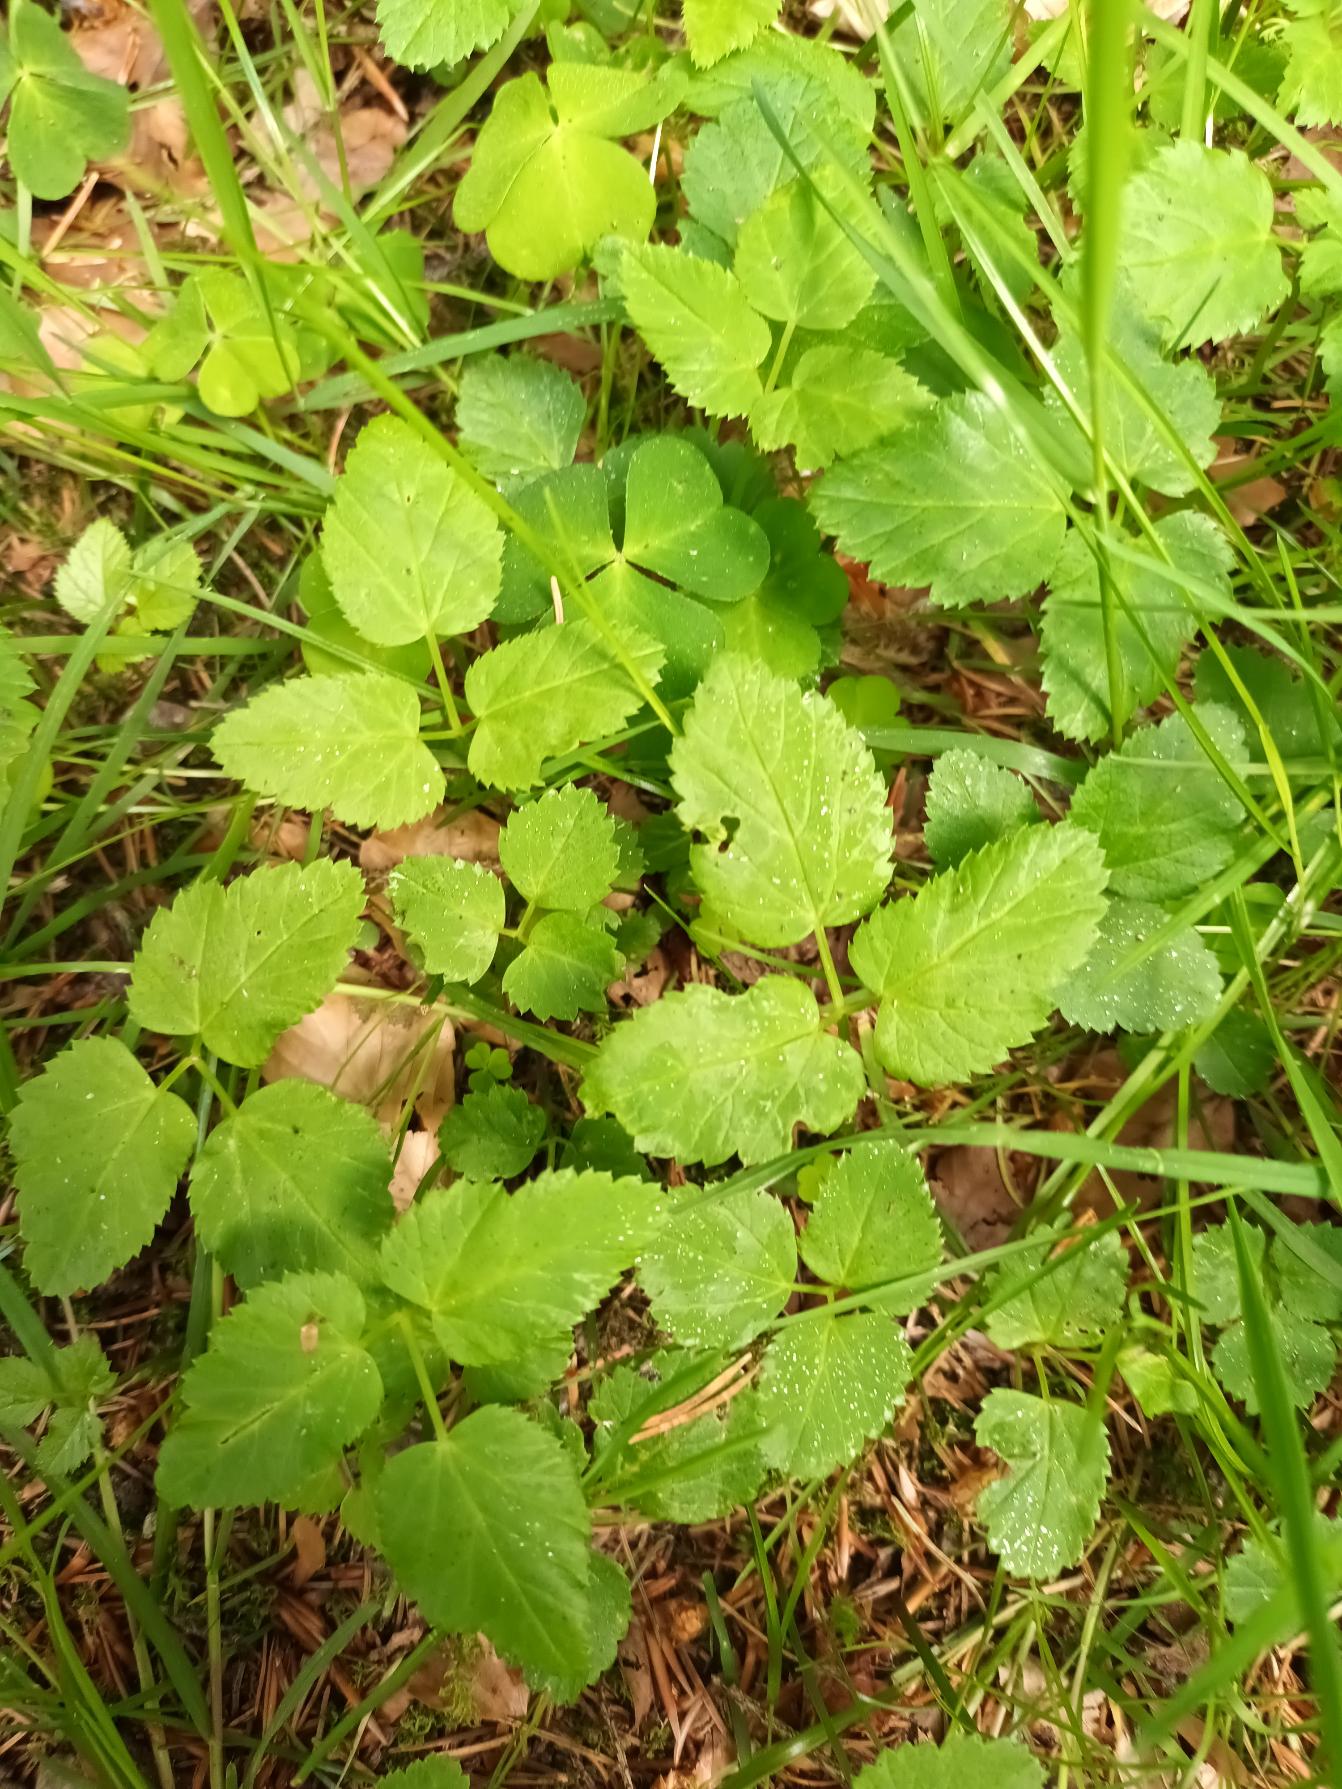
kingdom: Plantae
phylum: Tracheophyta
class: Magnoliopsida
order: Apiales
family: Apiaceae
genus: Aegopodium
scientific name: Aegopodium podagraria
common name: Skvalderkål
